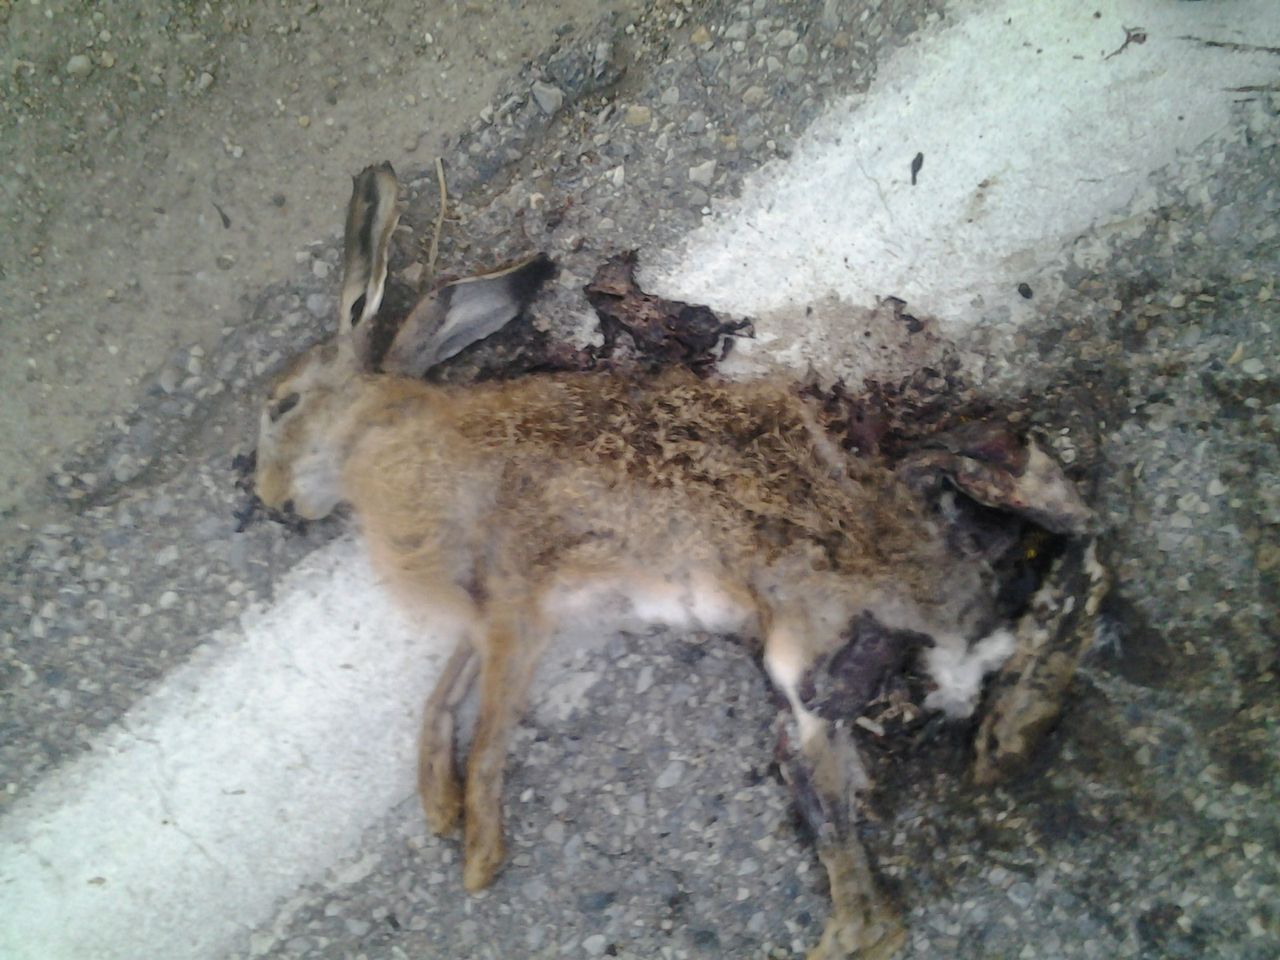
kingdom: Animalia
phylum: Chordata
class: Mammalia
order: Lagomorpha
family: Leporidae
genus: Lepus
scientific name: Lepus europaeus
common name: European hare
